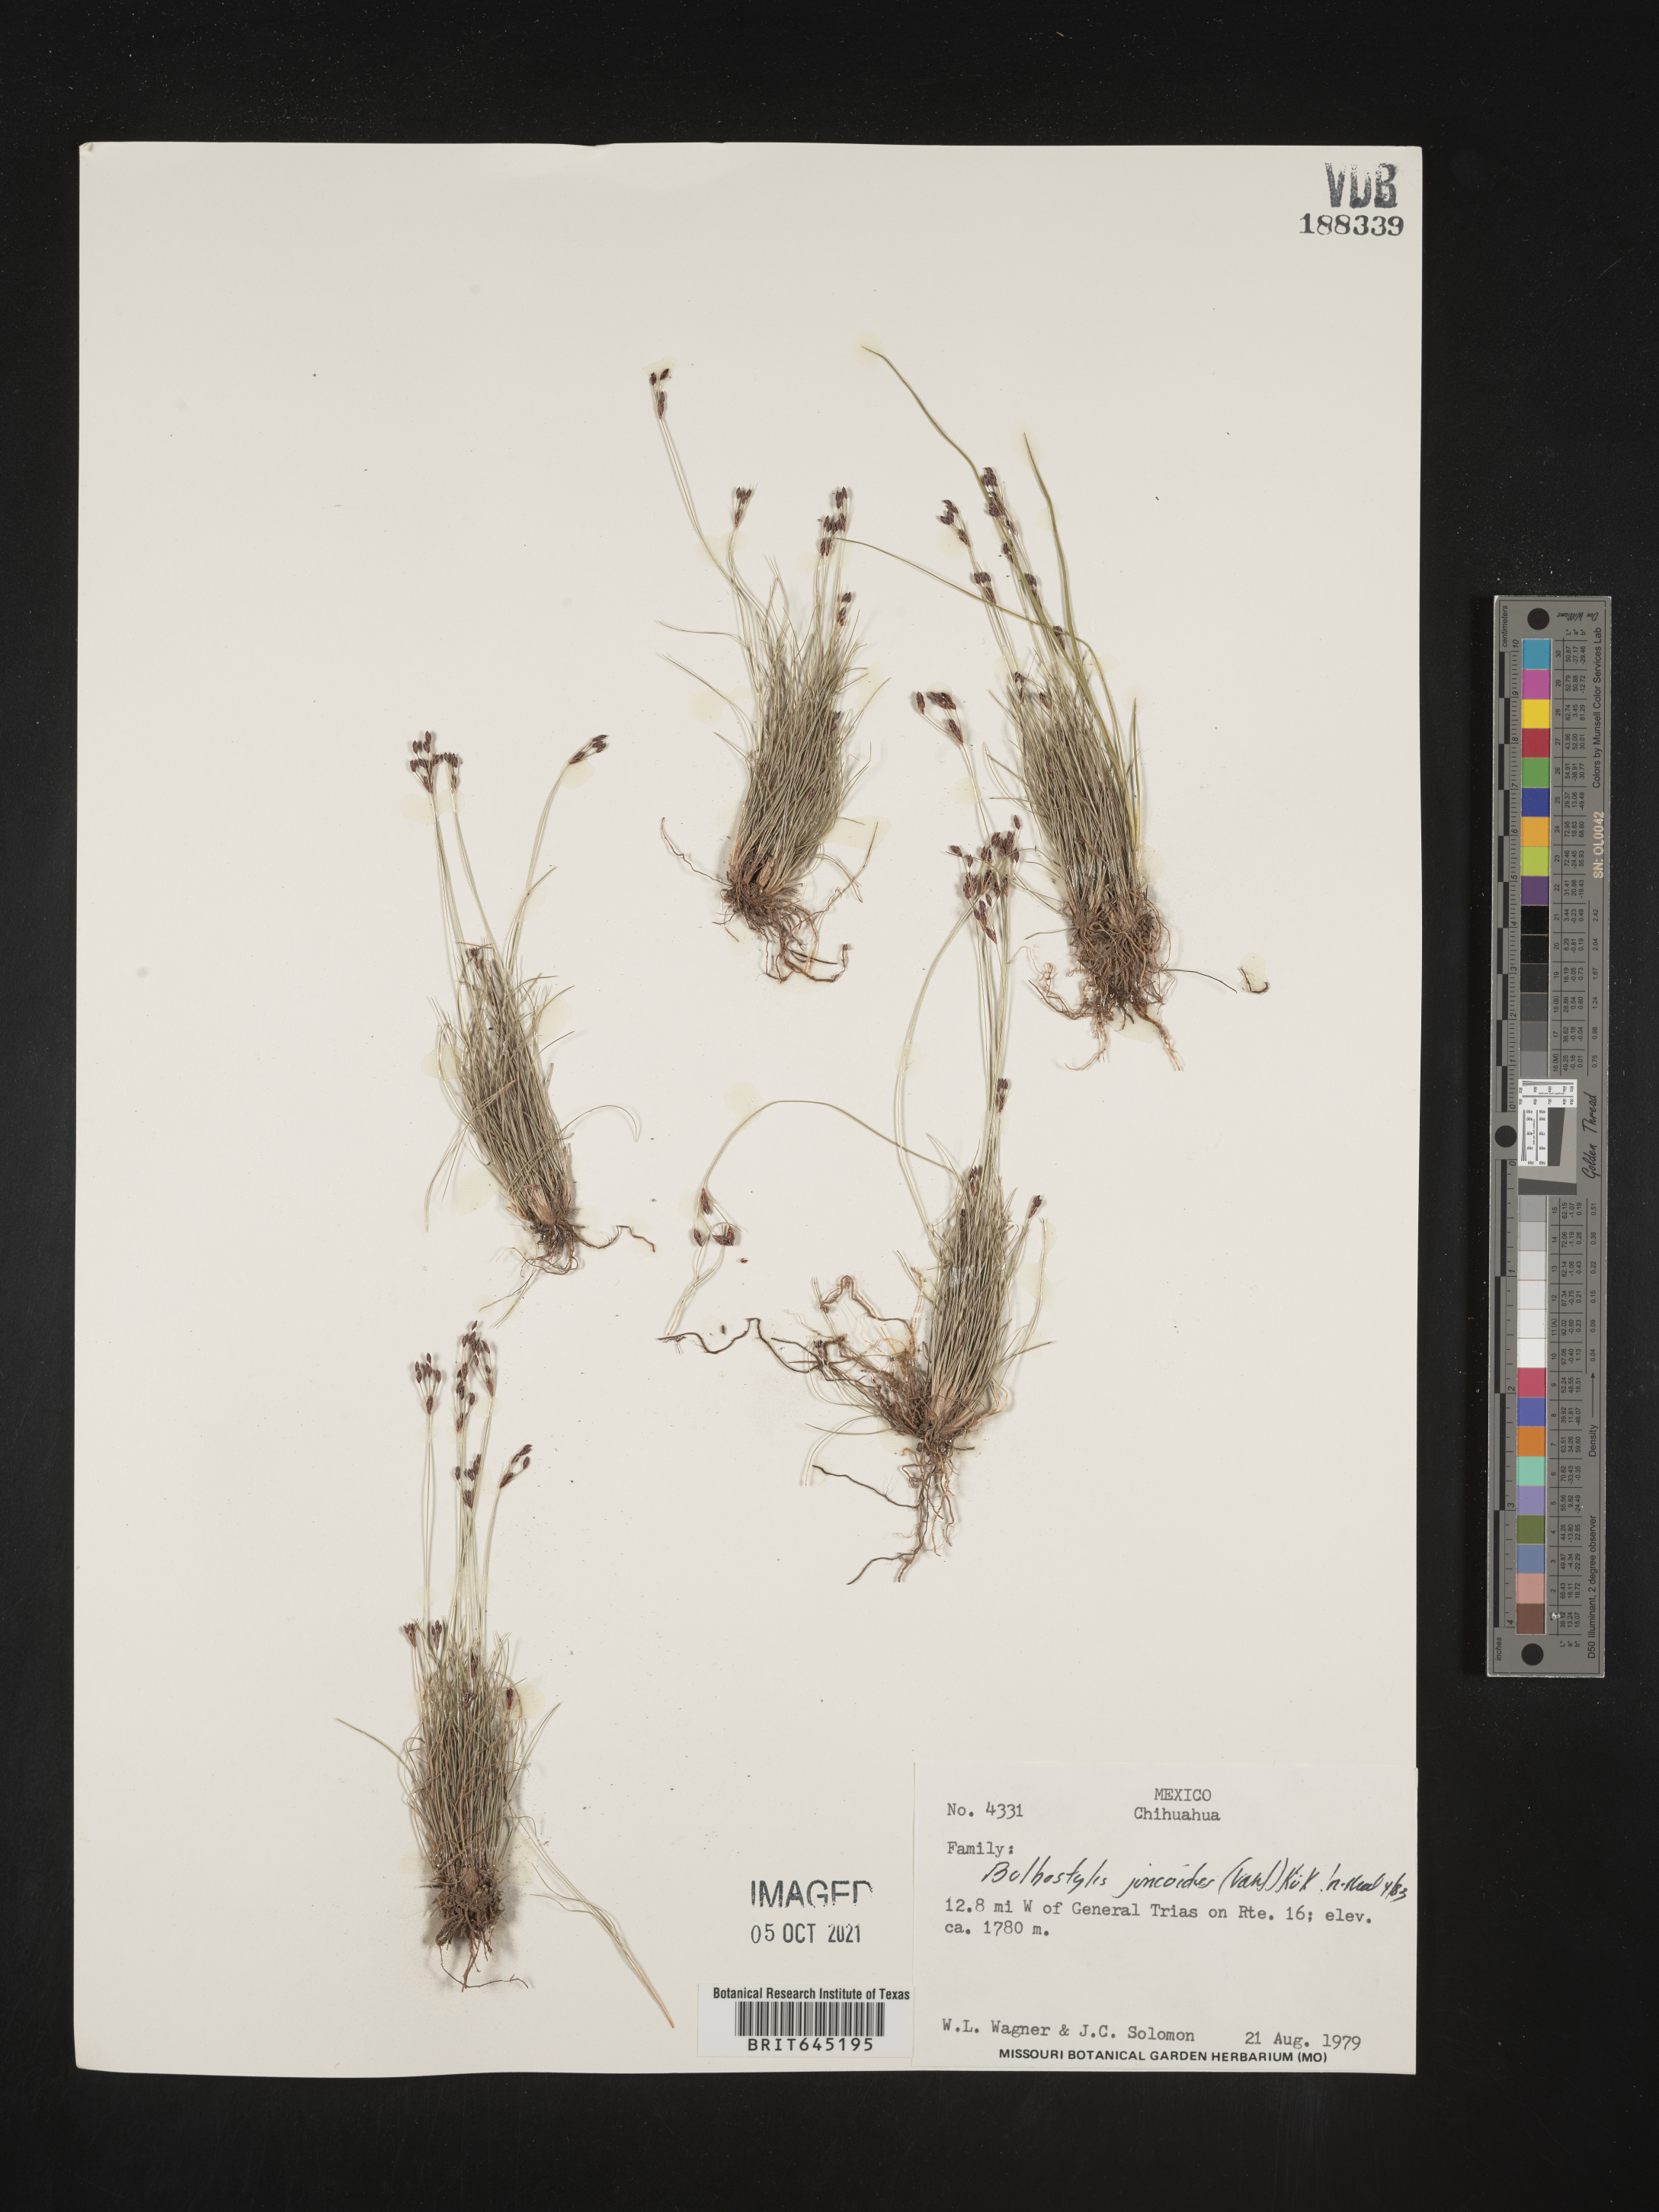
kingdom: Plantae
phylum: Tracheophyta
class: Liliopsida
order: Poales
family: Cyperaceae
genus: Bulbostylis
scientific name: Bulbostylis juncoides
